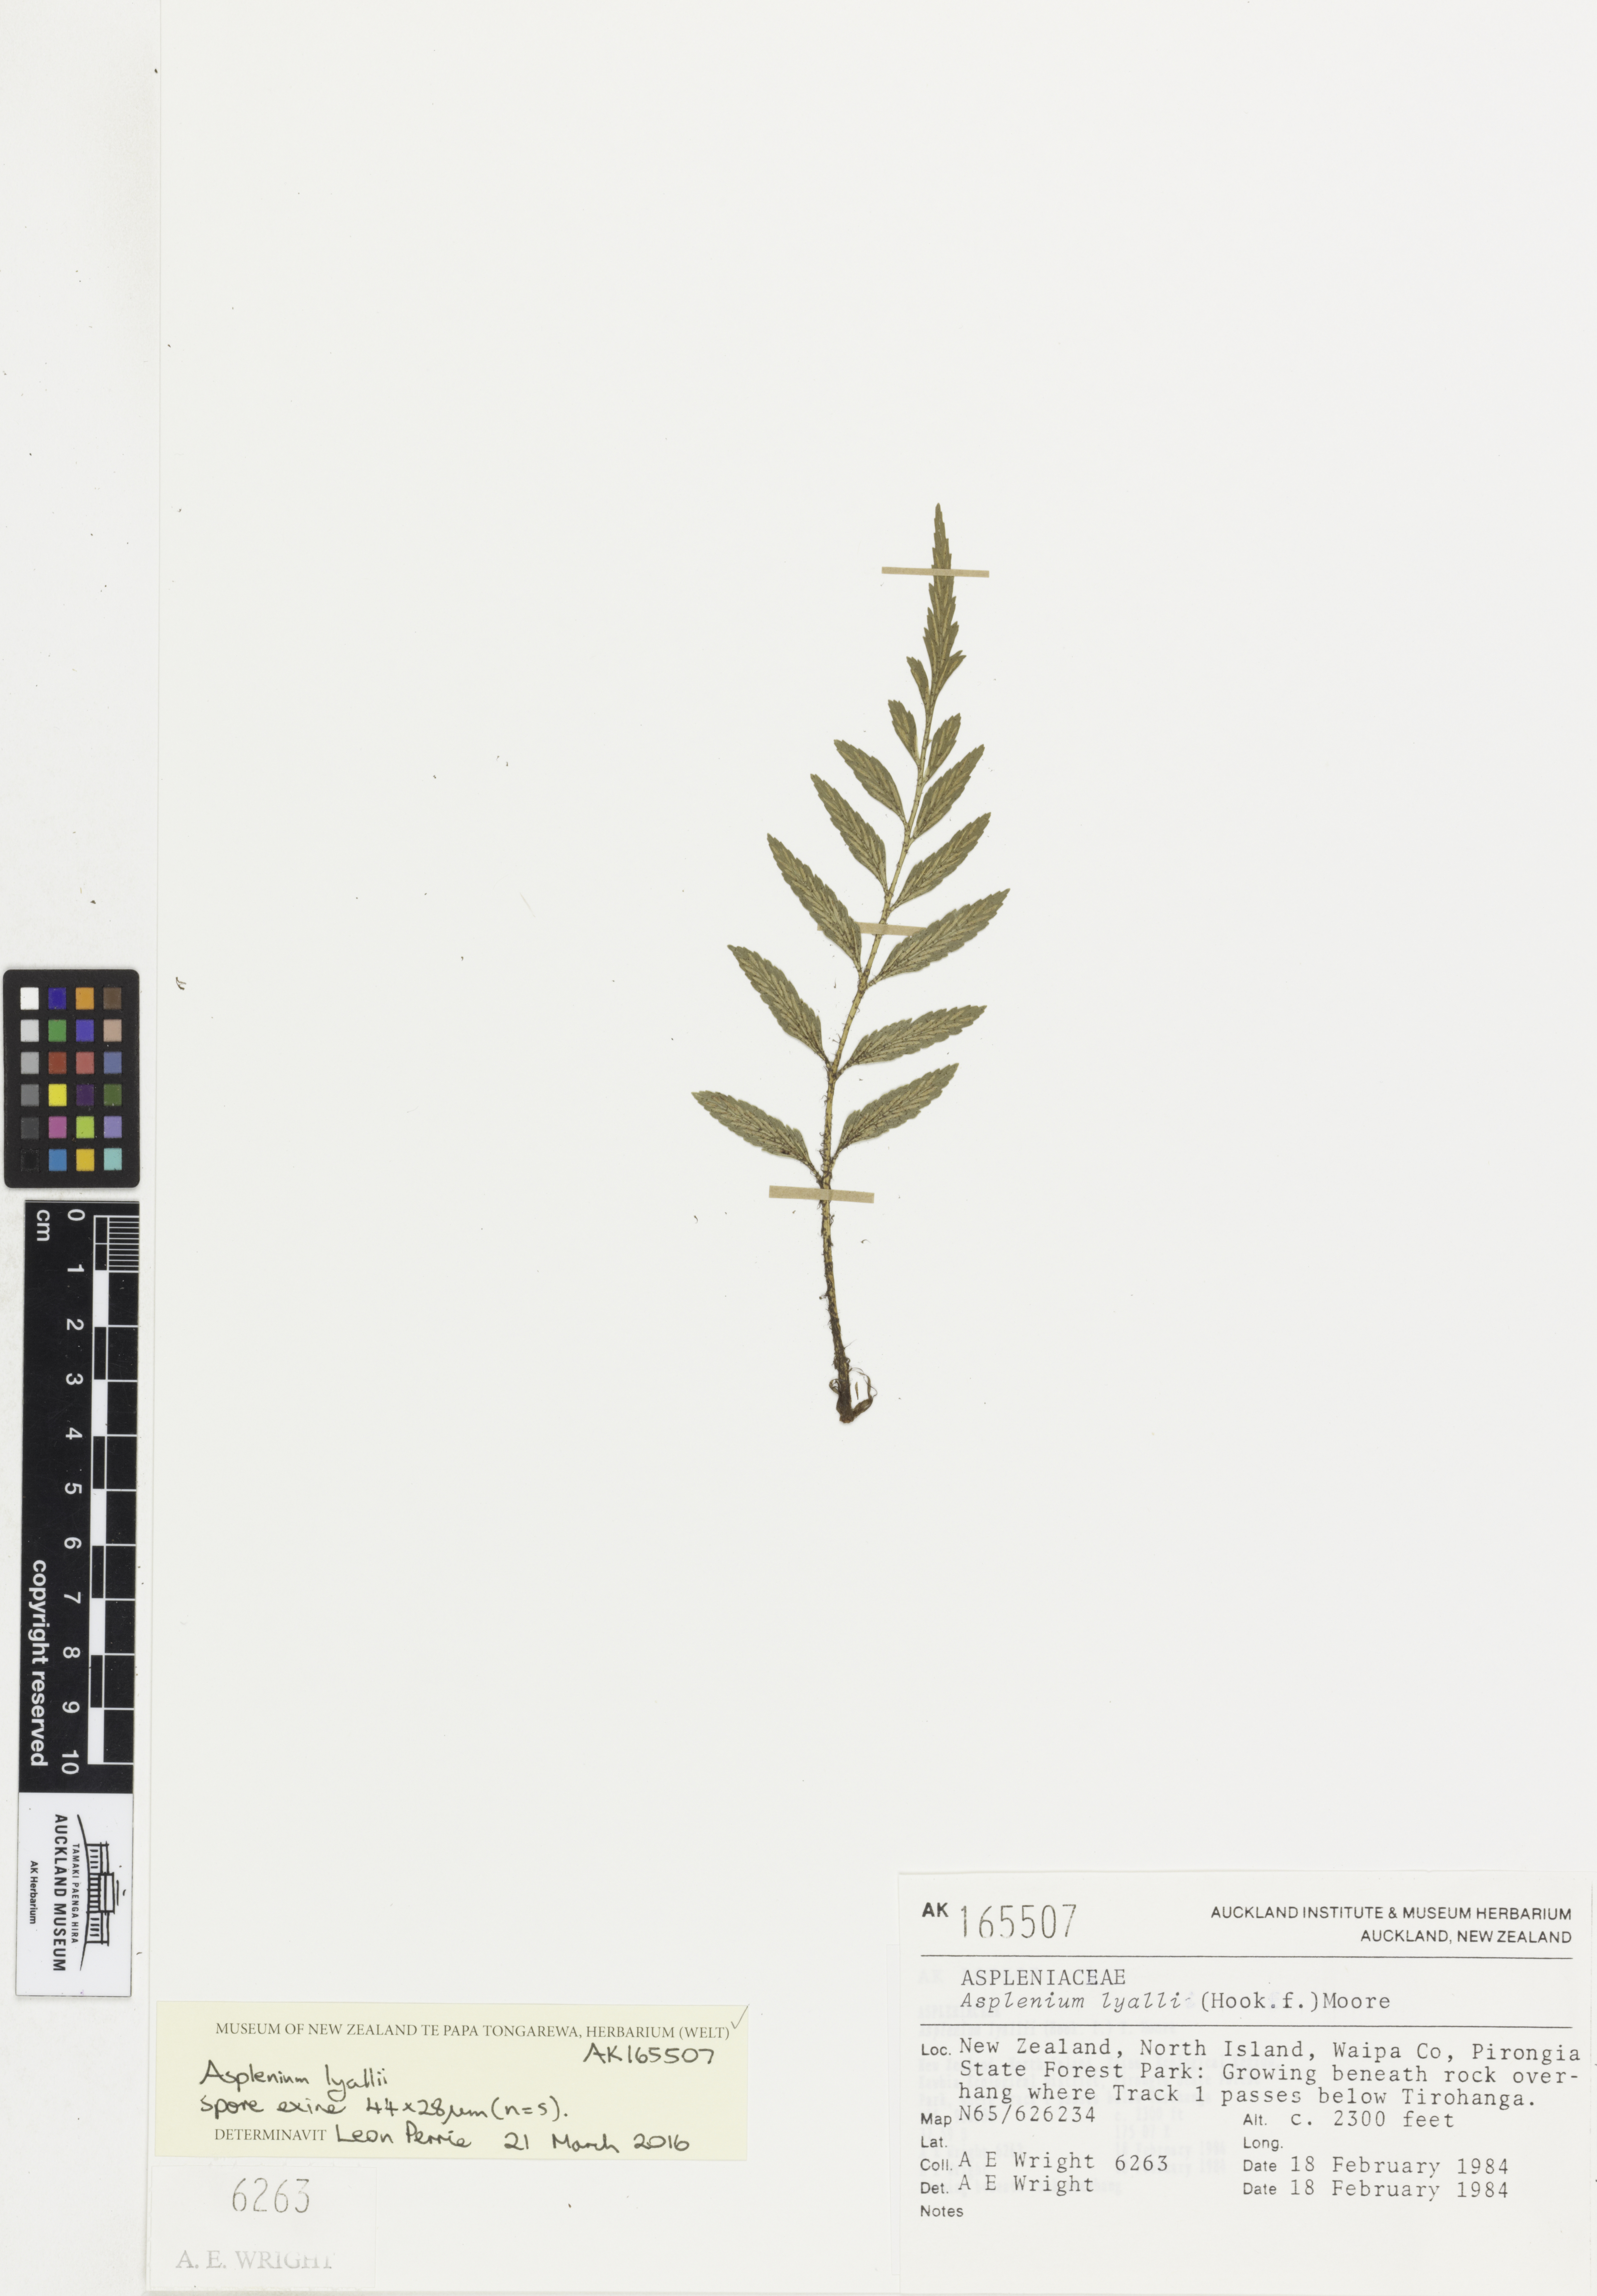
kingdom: Plantae
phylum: Tracheophyta
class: Polypodiopsida
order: Polypodiales
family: Aspleniaceae
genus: Asplenium
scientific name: Asplenium lyallii
